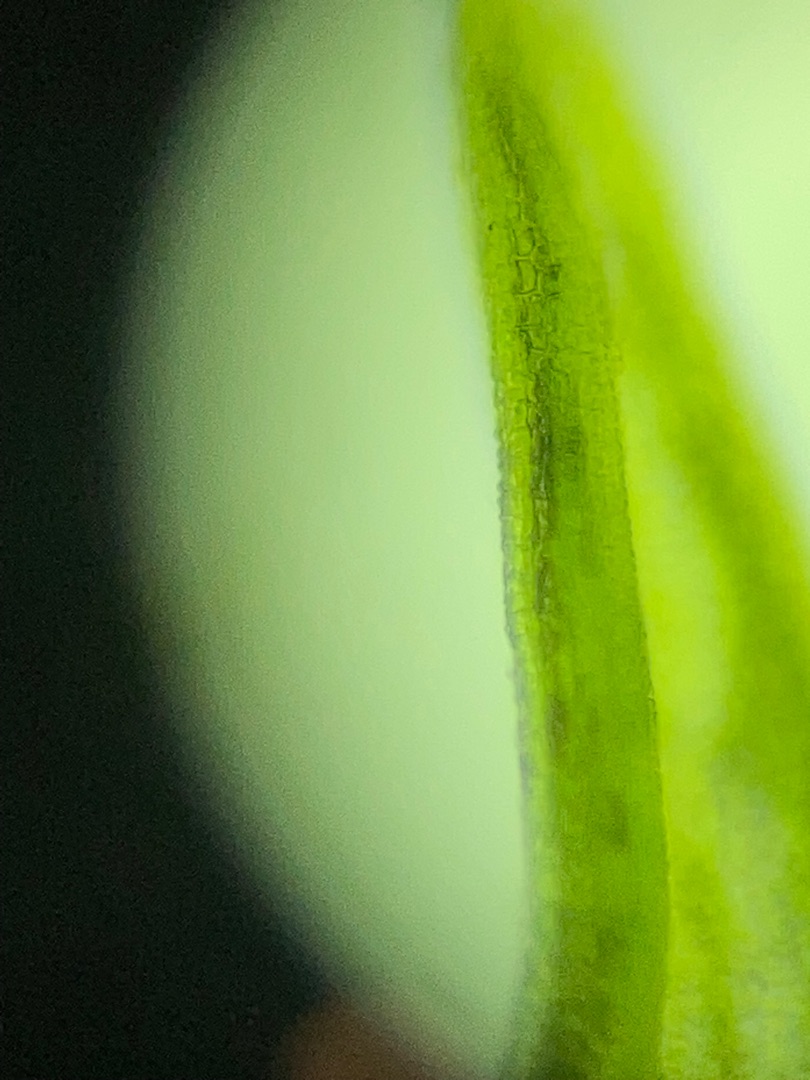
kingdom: Plantae
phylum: Bryophyta
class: Bryopsida
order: Pottiales
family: Pottiaceae
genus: Pseudocrossidium
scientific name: Pseudocrossidium hornschuchianum
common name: Spids rullerand
